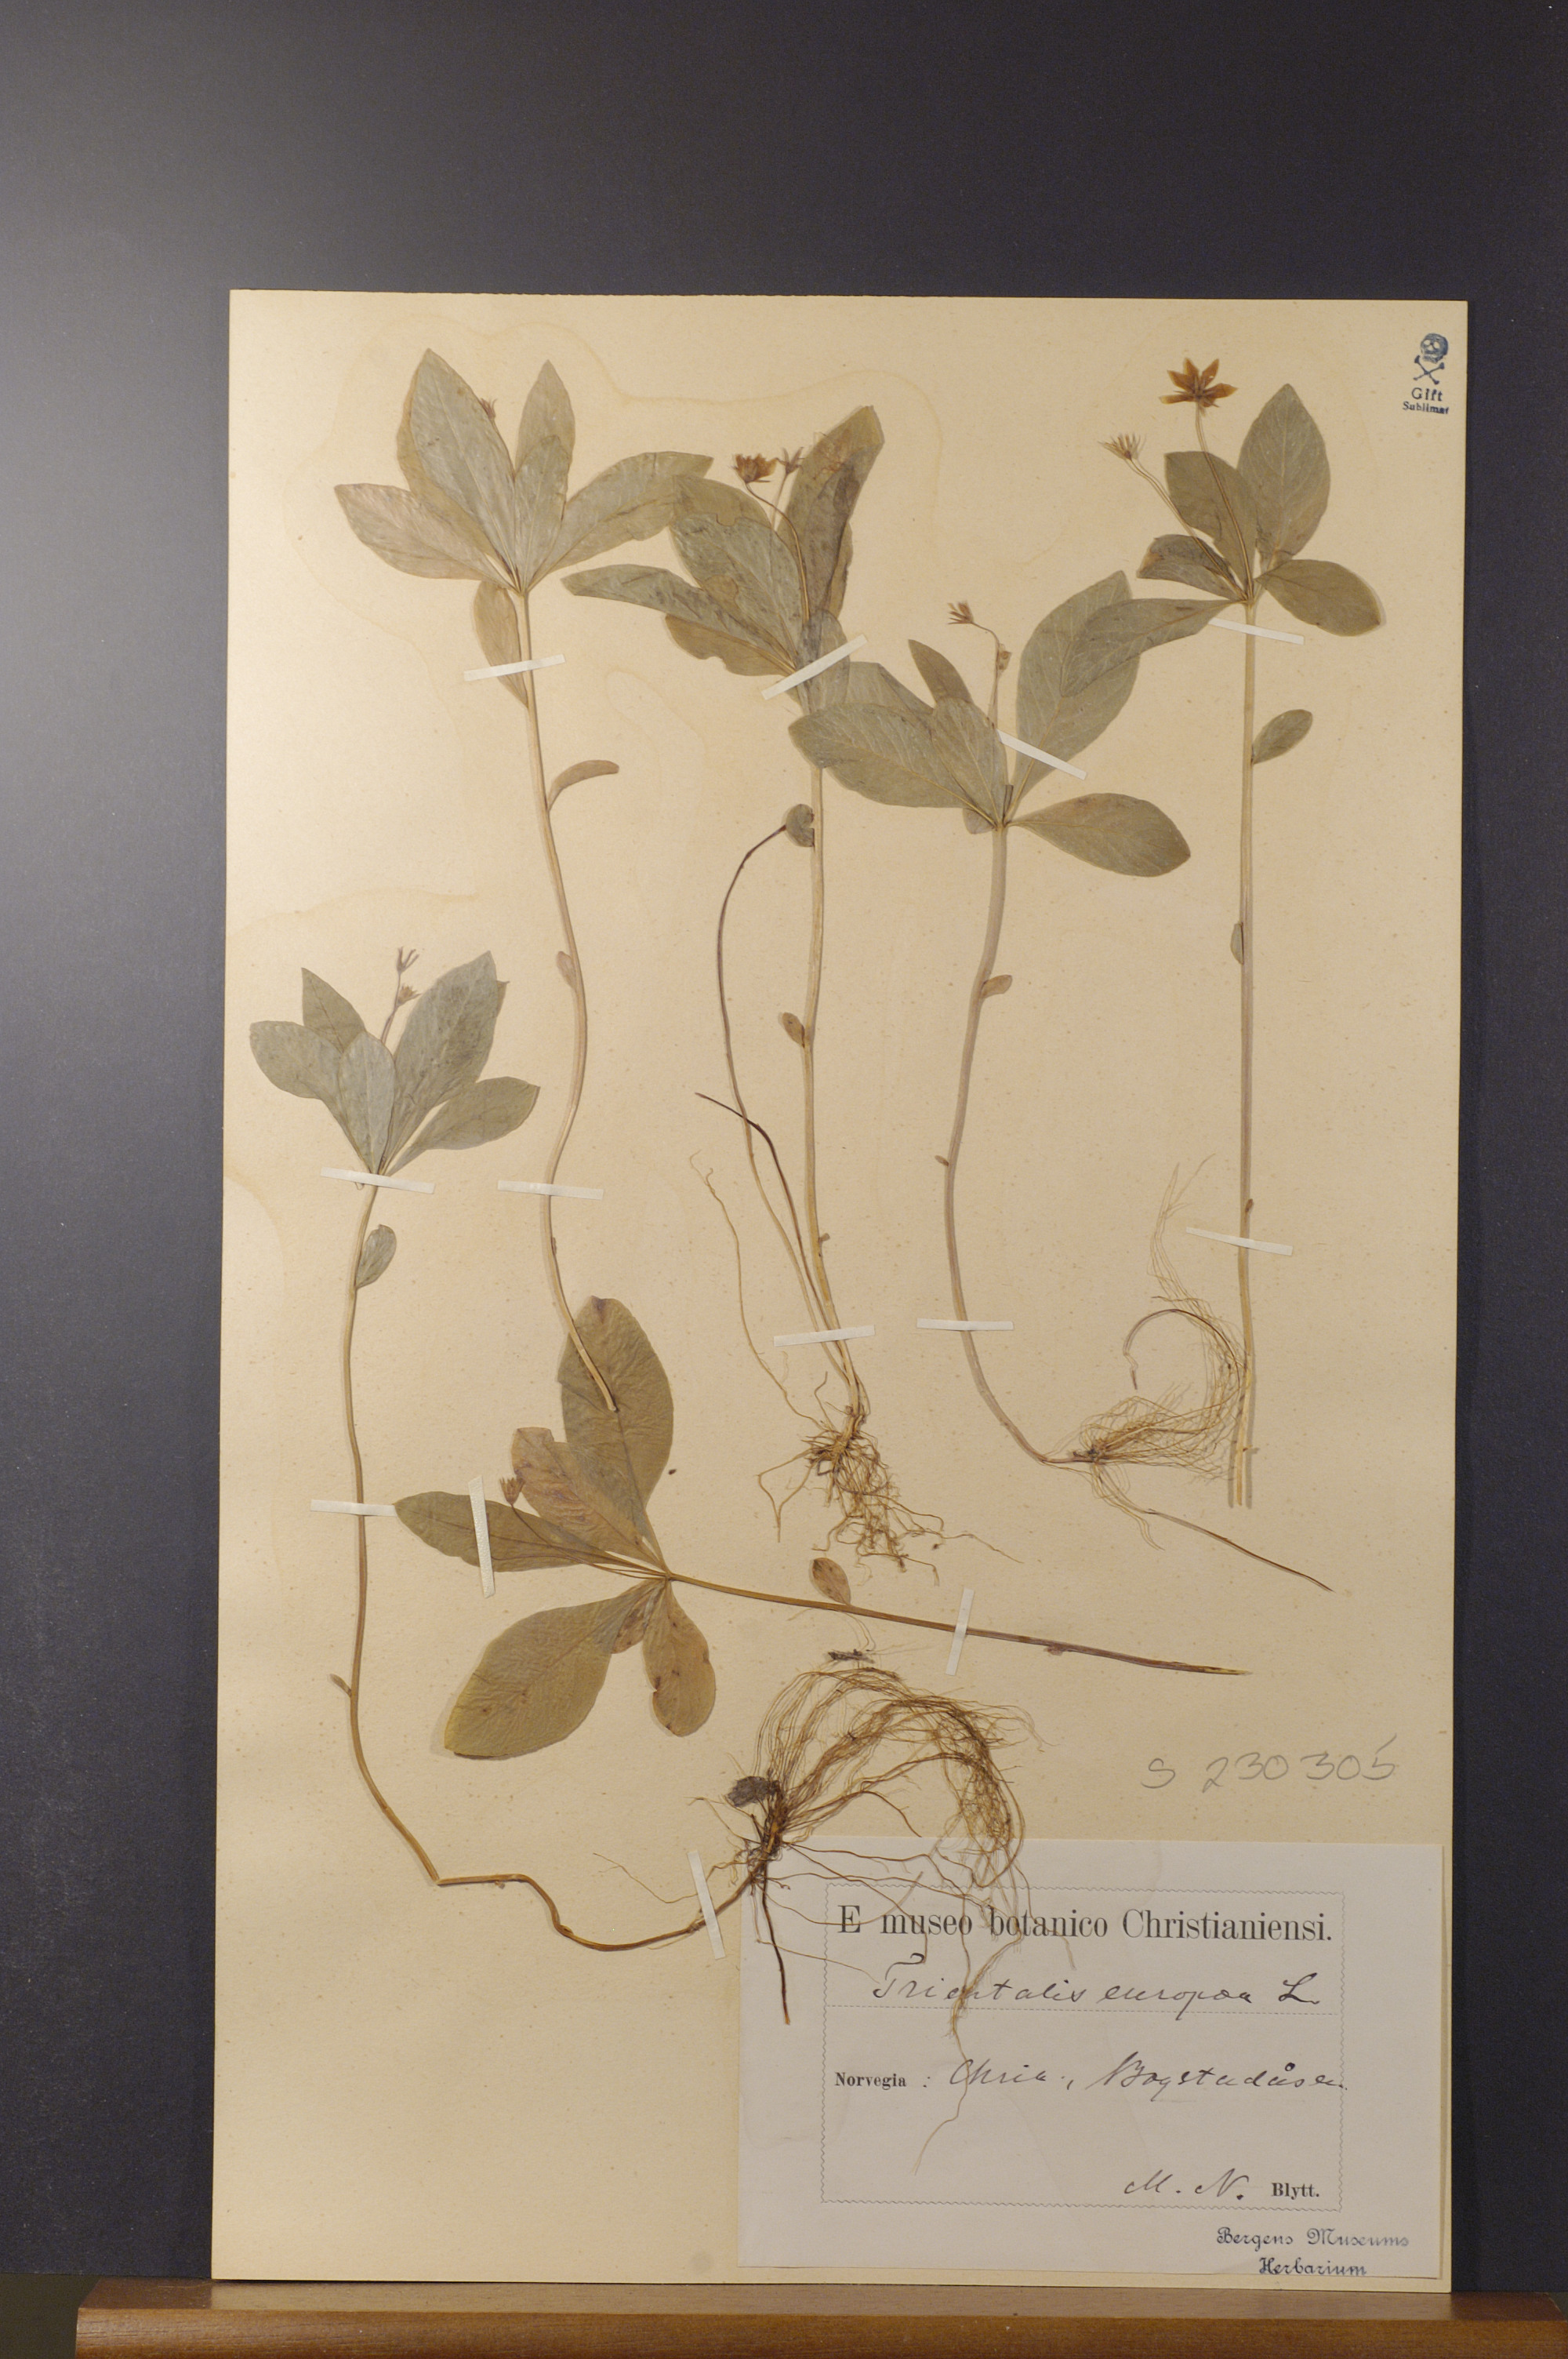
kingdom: Plantae
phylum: Tracheophyta
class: Magnoliopsida
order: Ericales
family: Primulaceae
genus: Lysimachia
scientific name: Lysimachia europaea
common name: Arctic starflower
